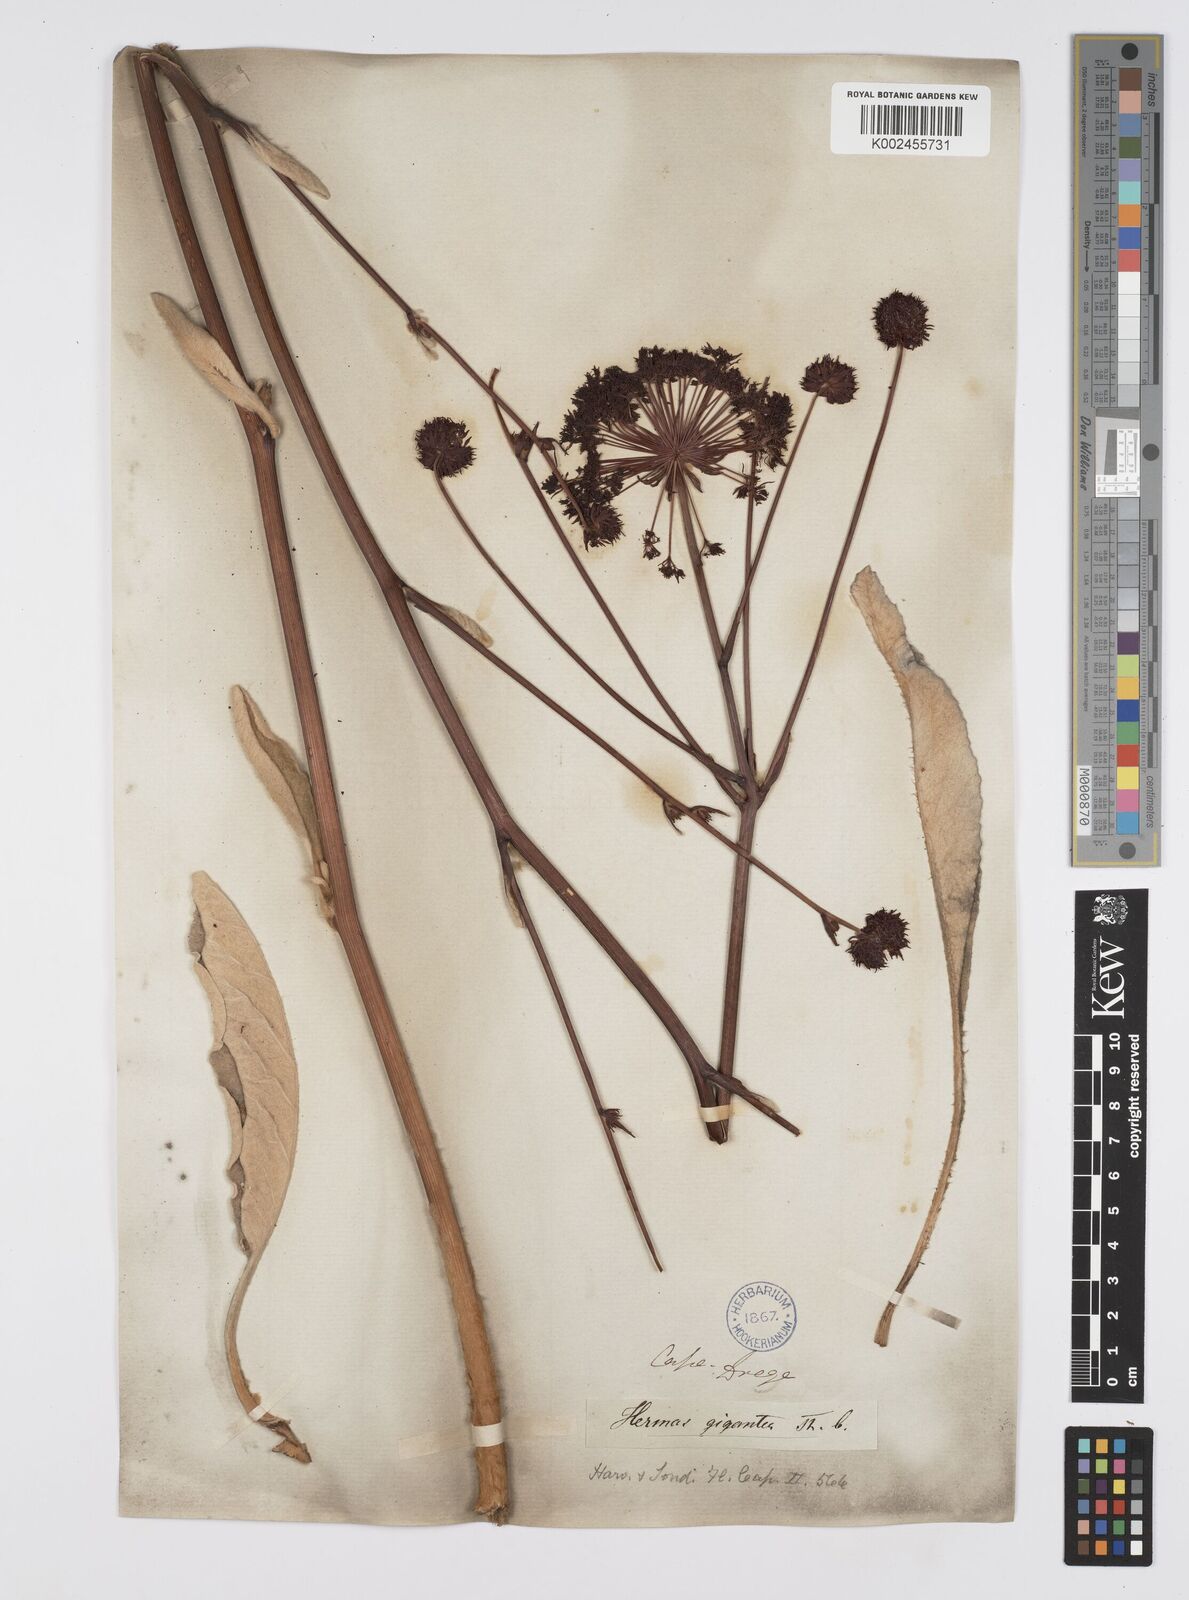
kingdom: Plantae
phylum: Tracheophyta
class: Magnoliopsida
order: Apiales
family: Apiaceae
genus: Hermas
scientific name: Hermas gigantea
